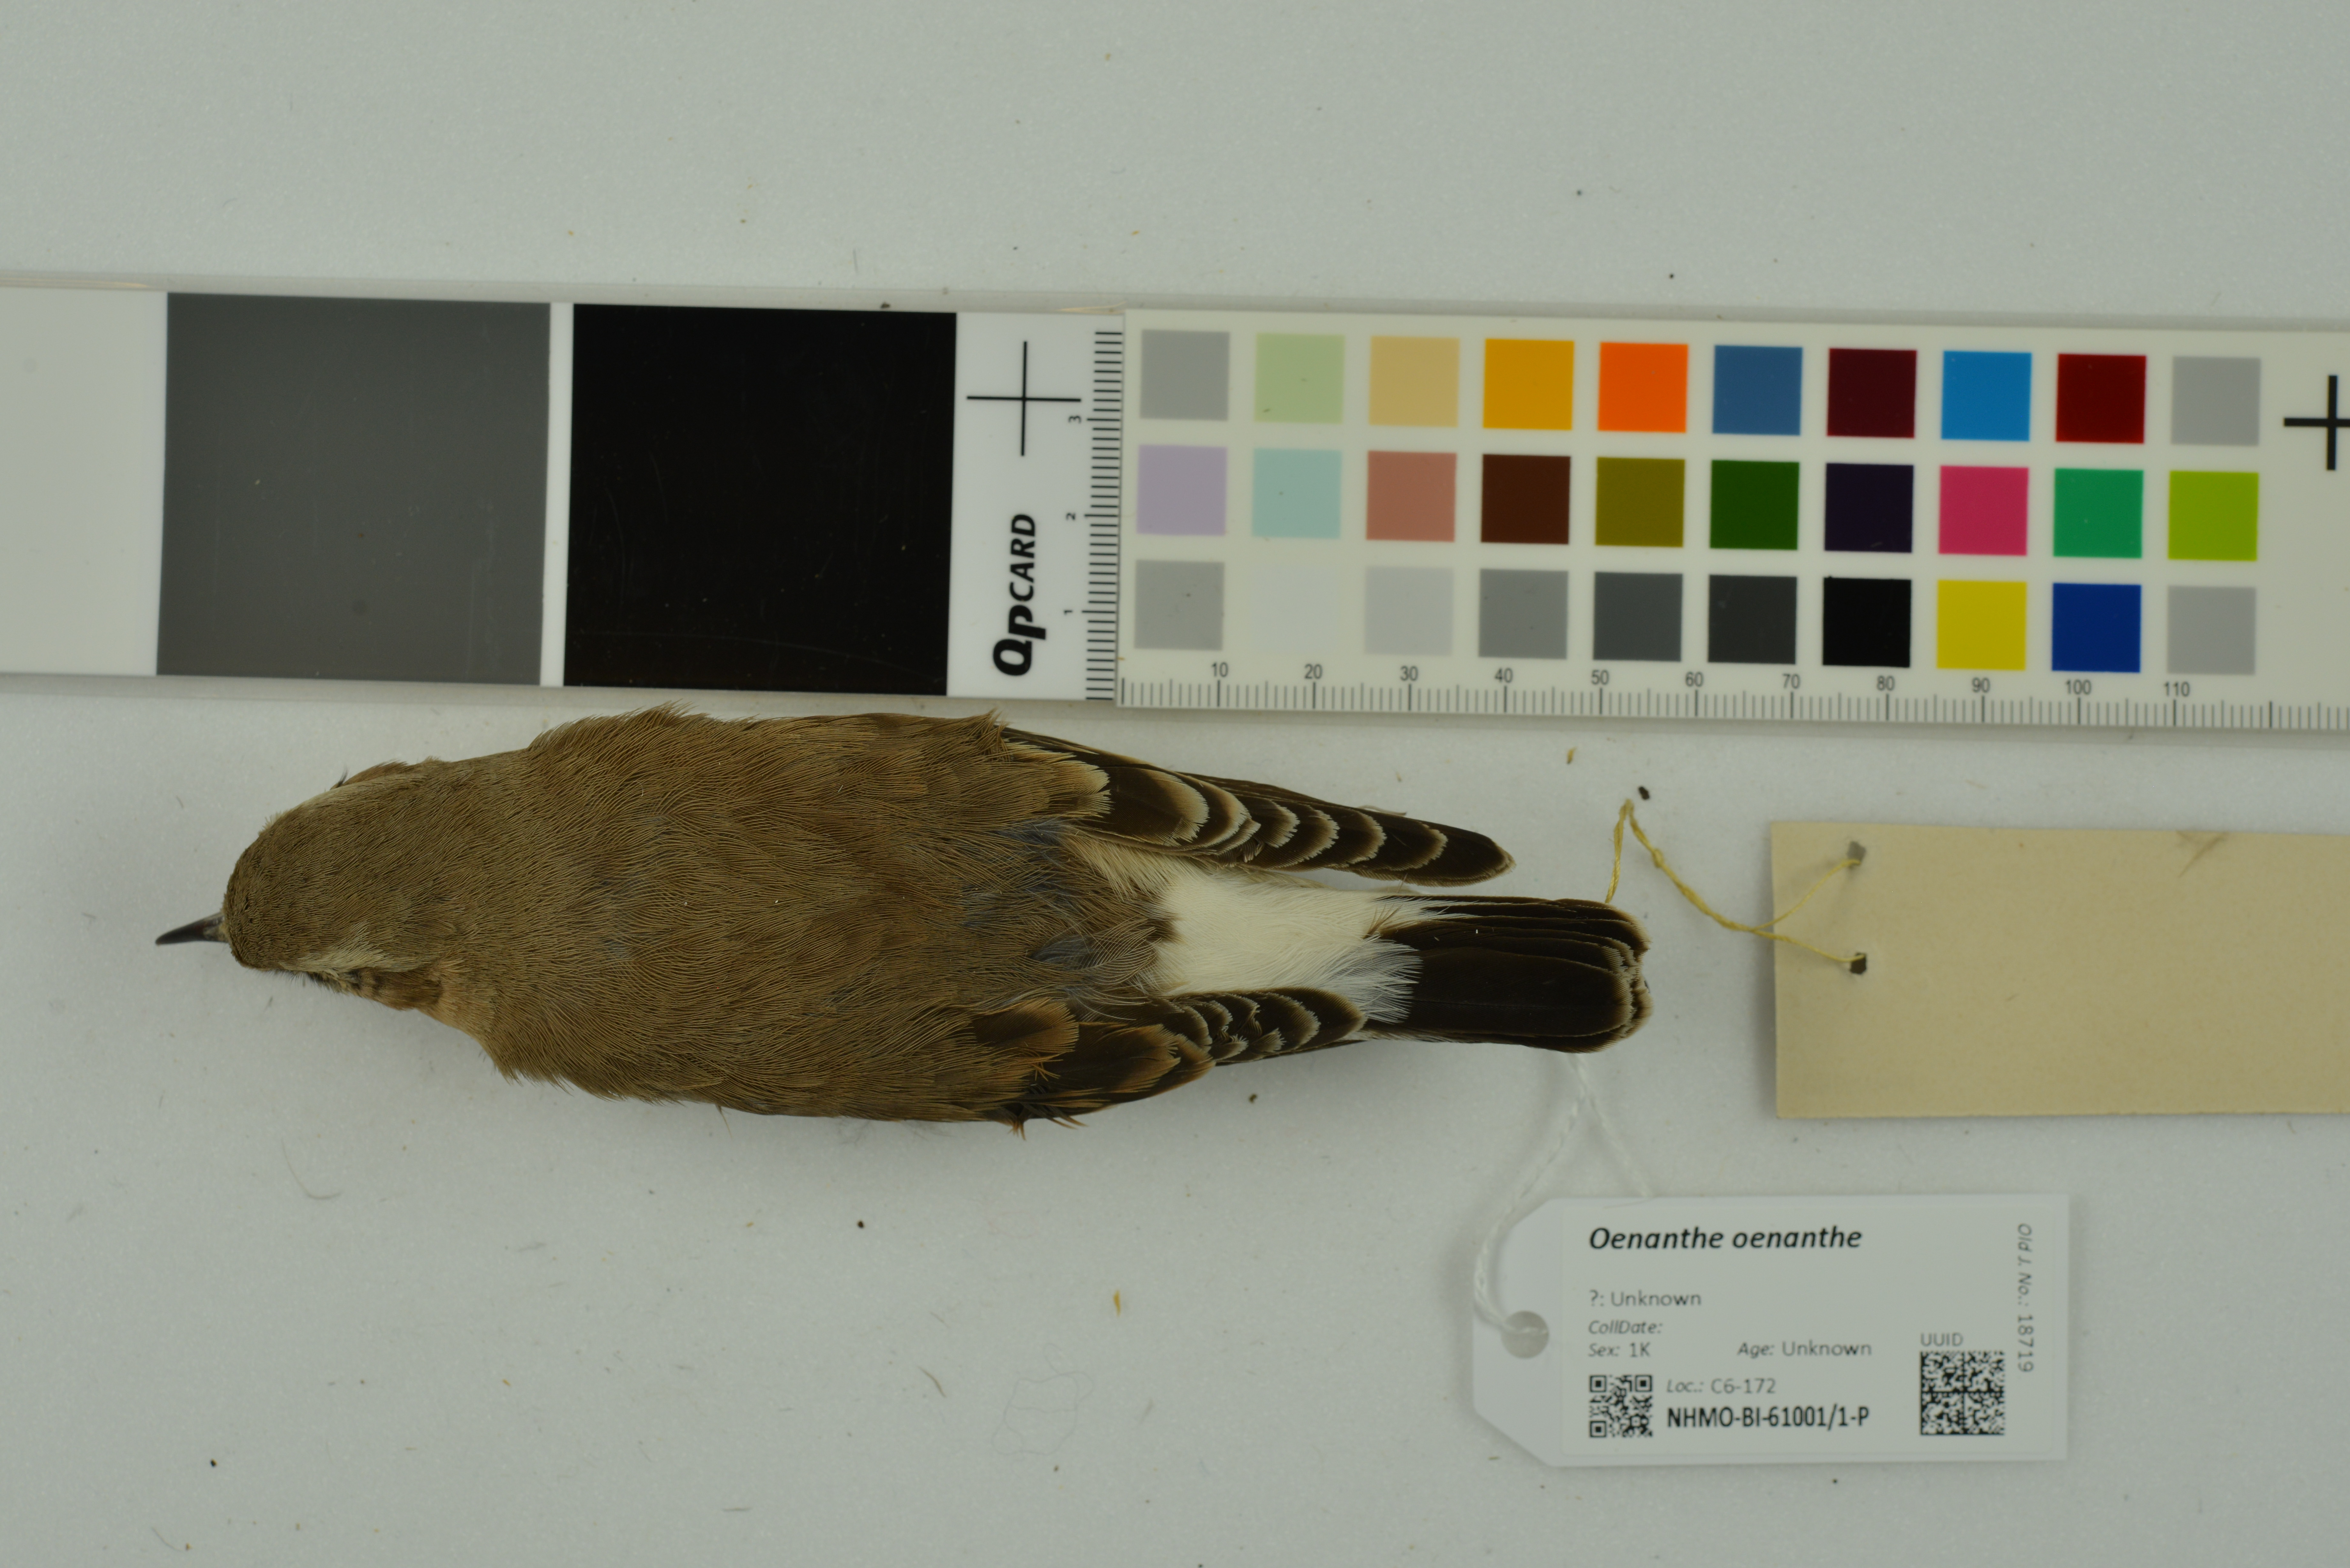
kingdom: Animalia
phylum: Chordata
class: Aves
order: Passeriformes
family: Muscicapidae
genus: Oenanthe
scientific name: Oenanthe oenanthe
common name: Northern wheatear
